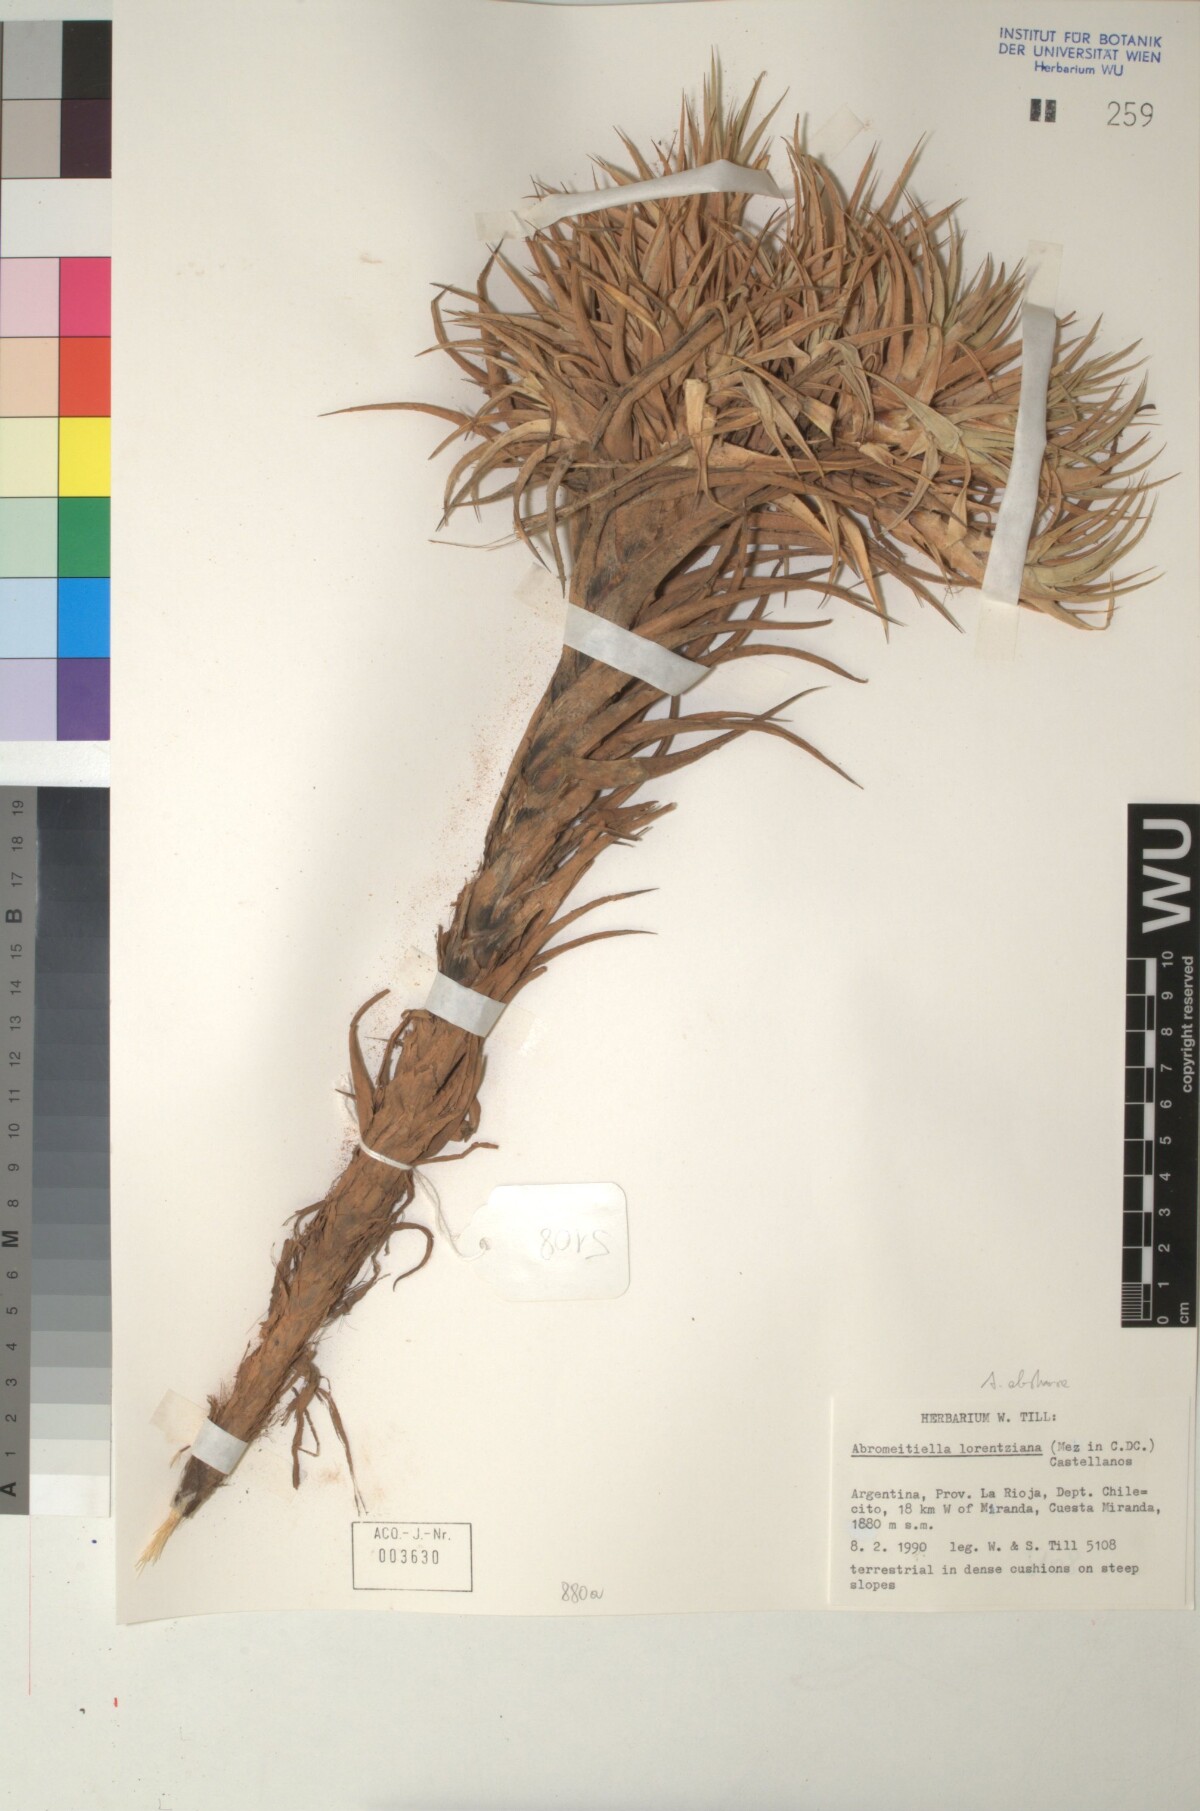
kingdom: Plantae
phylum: Tracheophyta
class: Liliopsida
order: Poales
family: Bromeliaceae
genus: Deuterocohnia
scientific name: Deuterocohnia abstrusa
